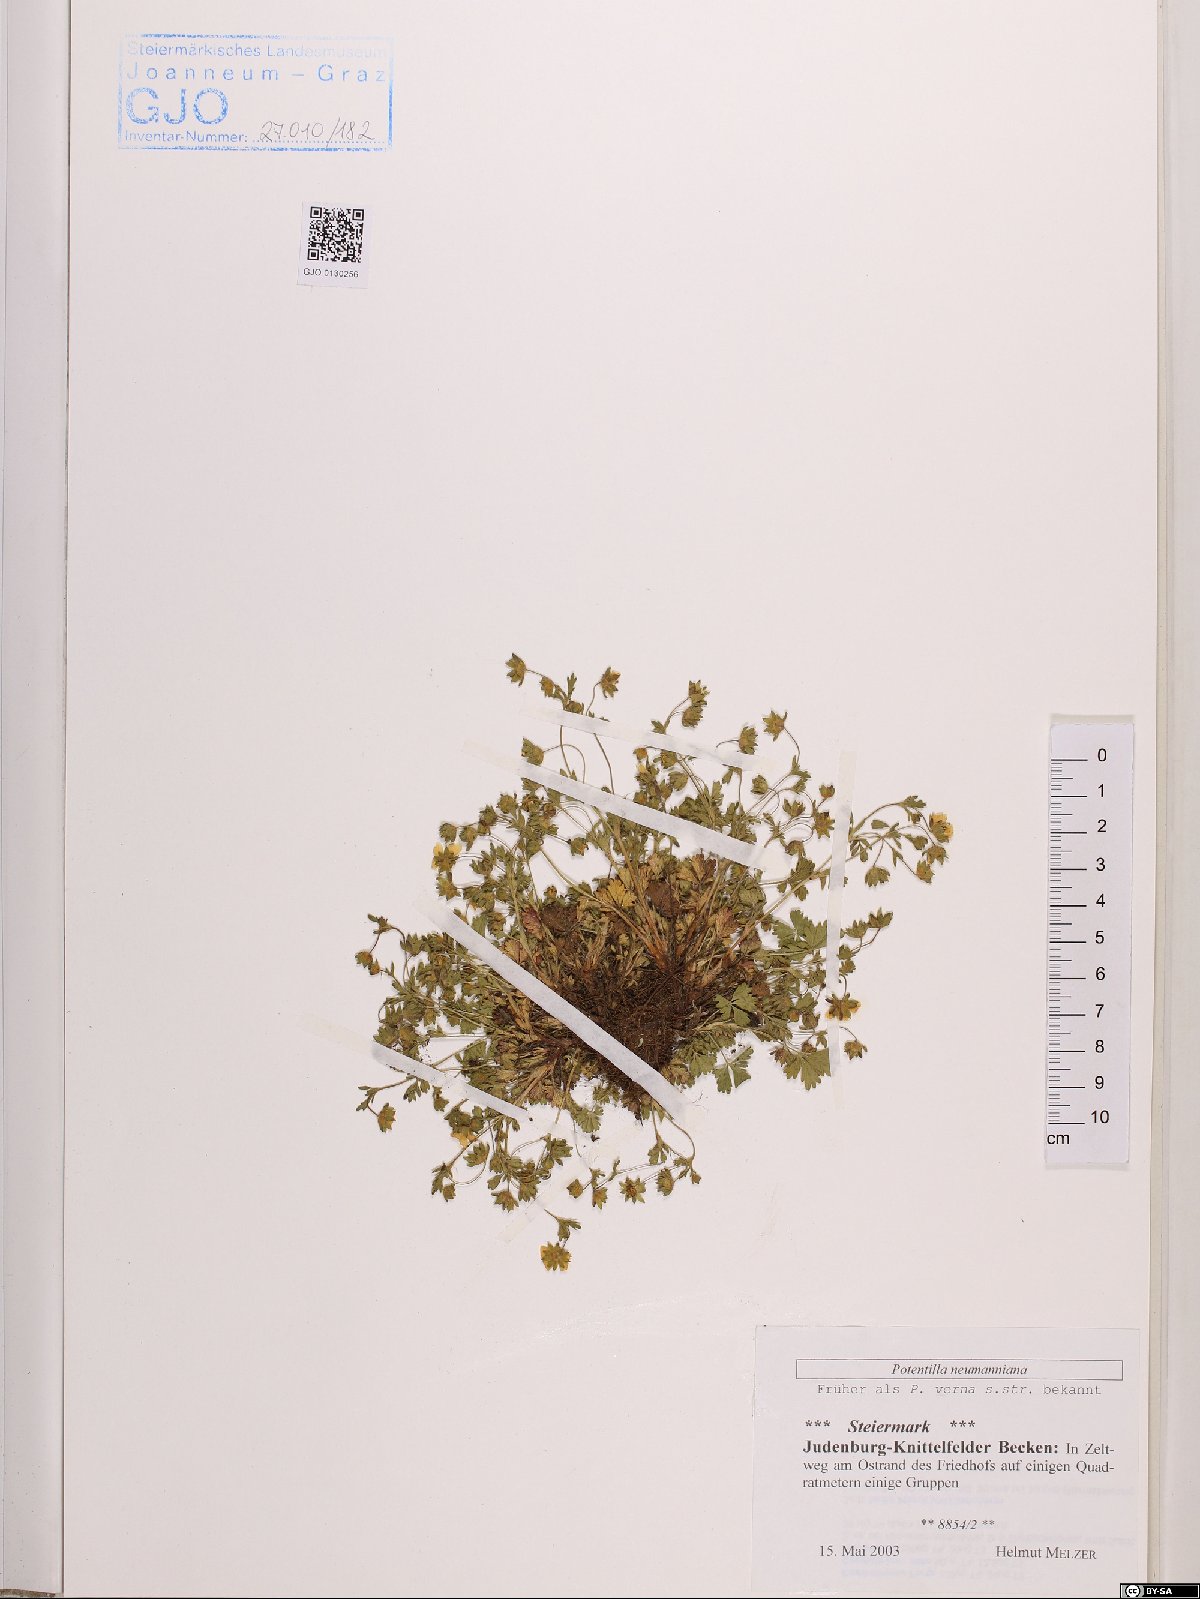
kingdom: Plantae
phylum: Tracheophyta
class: Magnoliopsida
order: Rosales
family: Rosaceae
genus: Potentilla
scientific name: Potentilla verna
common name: Spring cinquefoil
